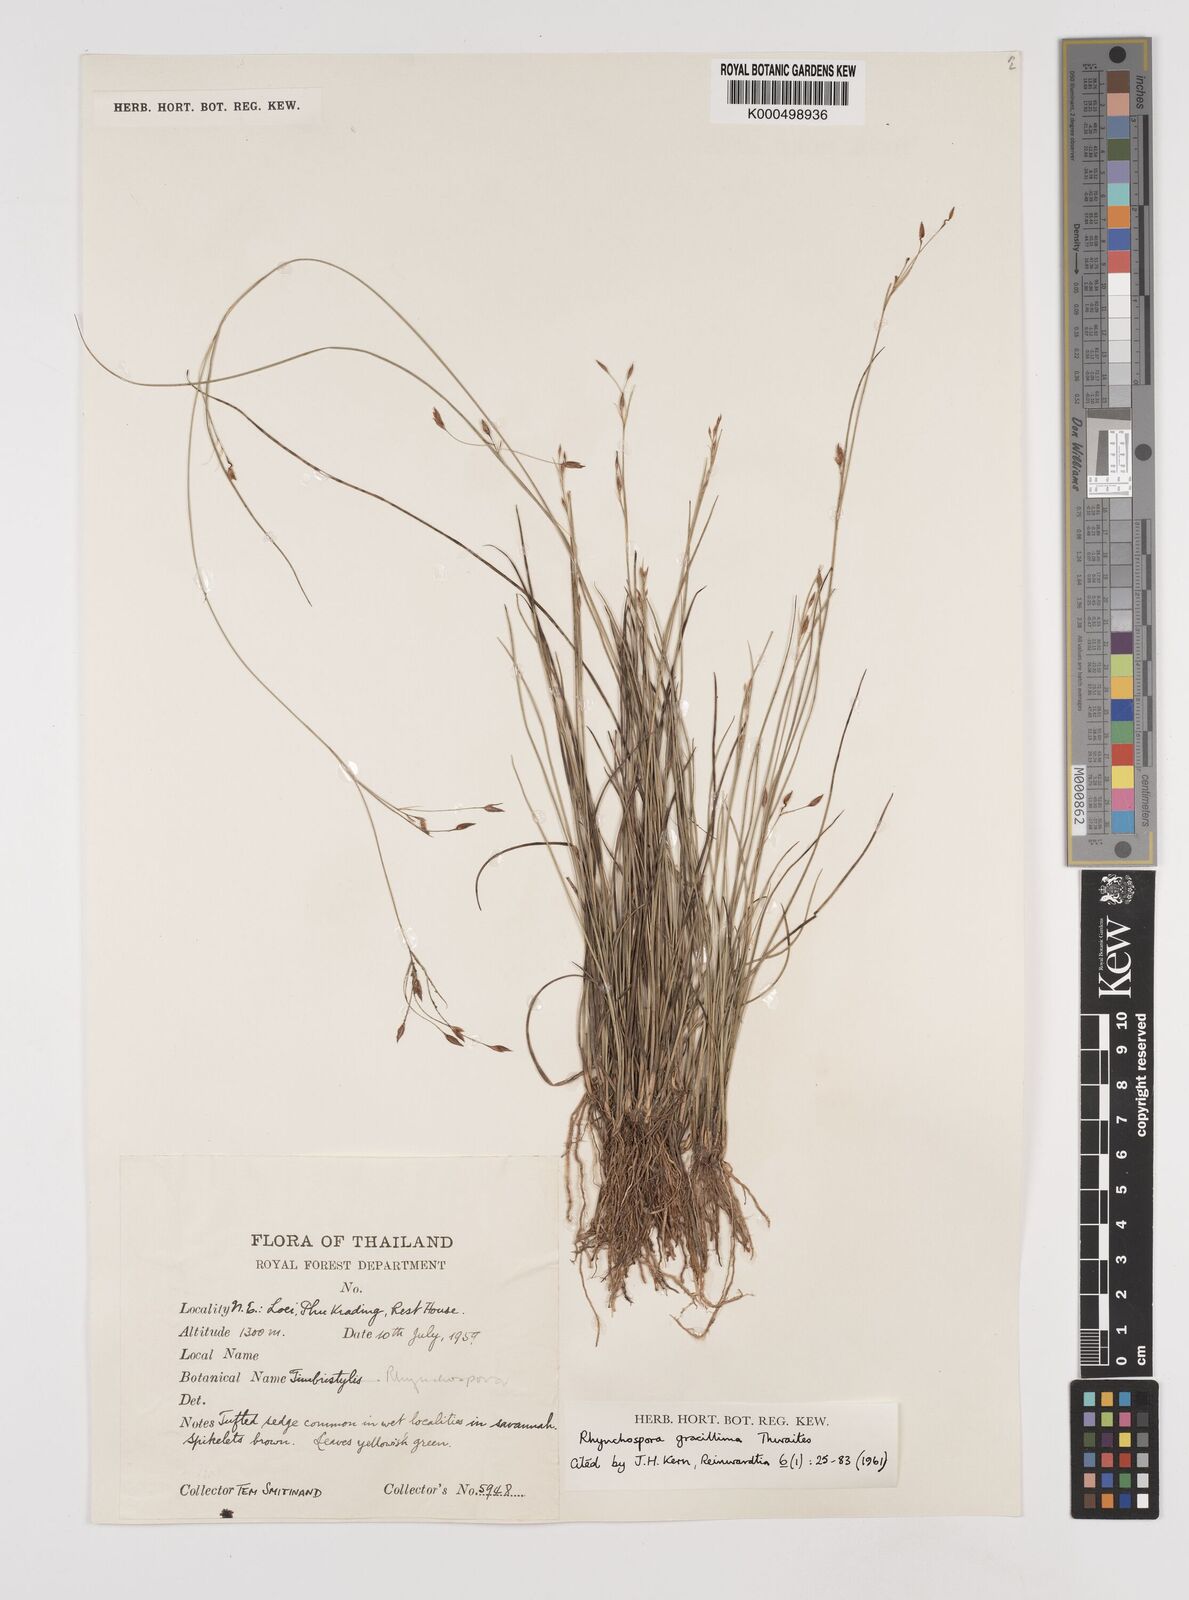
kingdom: Plantae
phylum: Tracheophyta
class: Liliopsida
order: Poales
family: Cyperaceae
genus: Rhynchospora
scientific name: Rhynchospora gracillima
